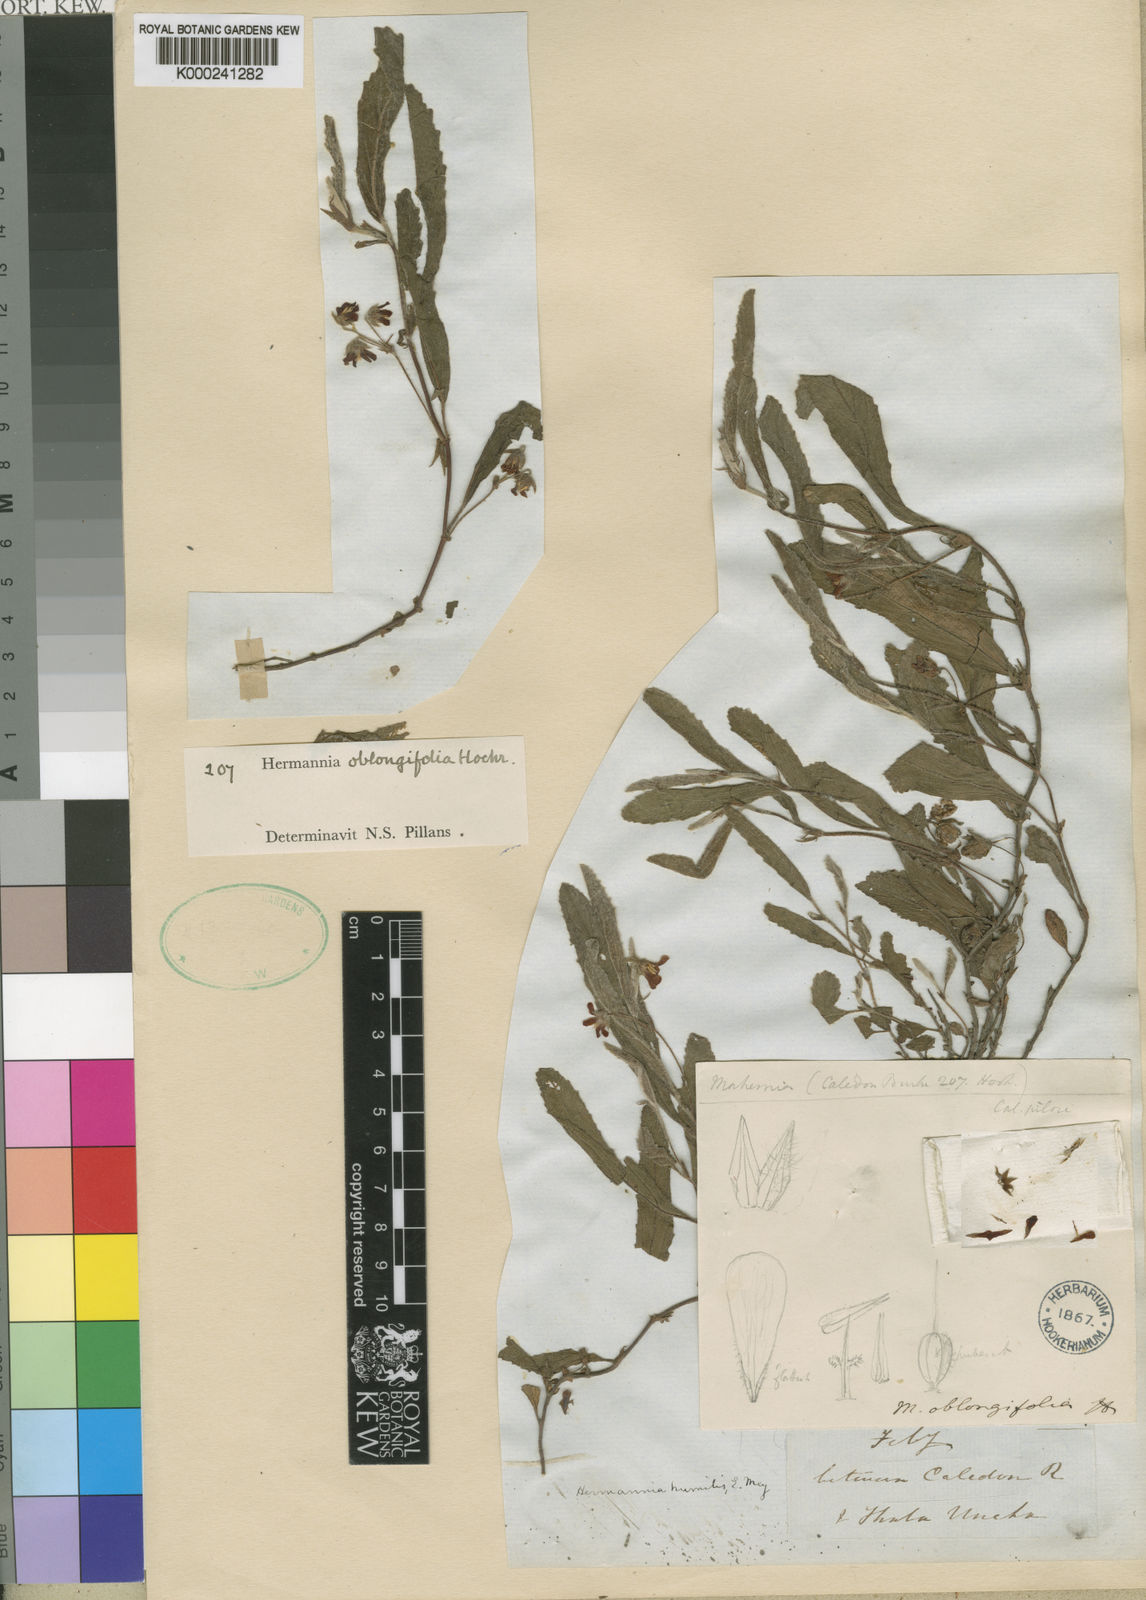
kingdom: Plantae
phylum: Tracheophyta
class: Magnoliopsida
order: Malvales
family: Malvaceae
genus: Hermannia
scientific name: Hermannia oblongifolia
